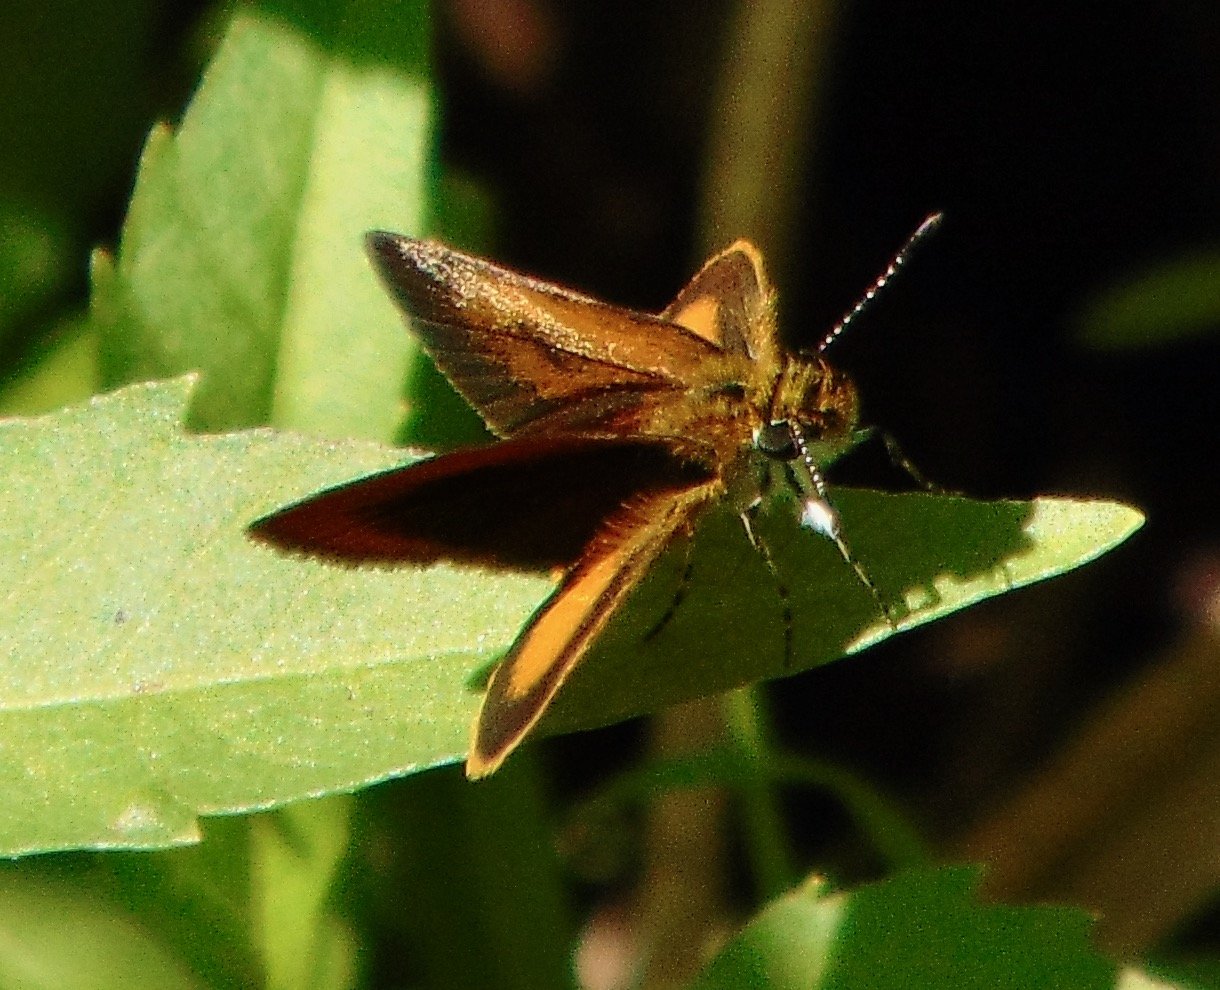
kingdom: Animalia
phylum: Arthropoda
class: Insecta
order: Lepidoptera
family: Hesperiidae
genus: Ancyloxypha
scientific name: Ancyloxypha numitor
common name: Least Skipper
